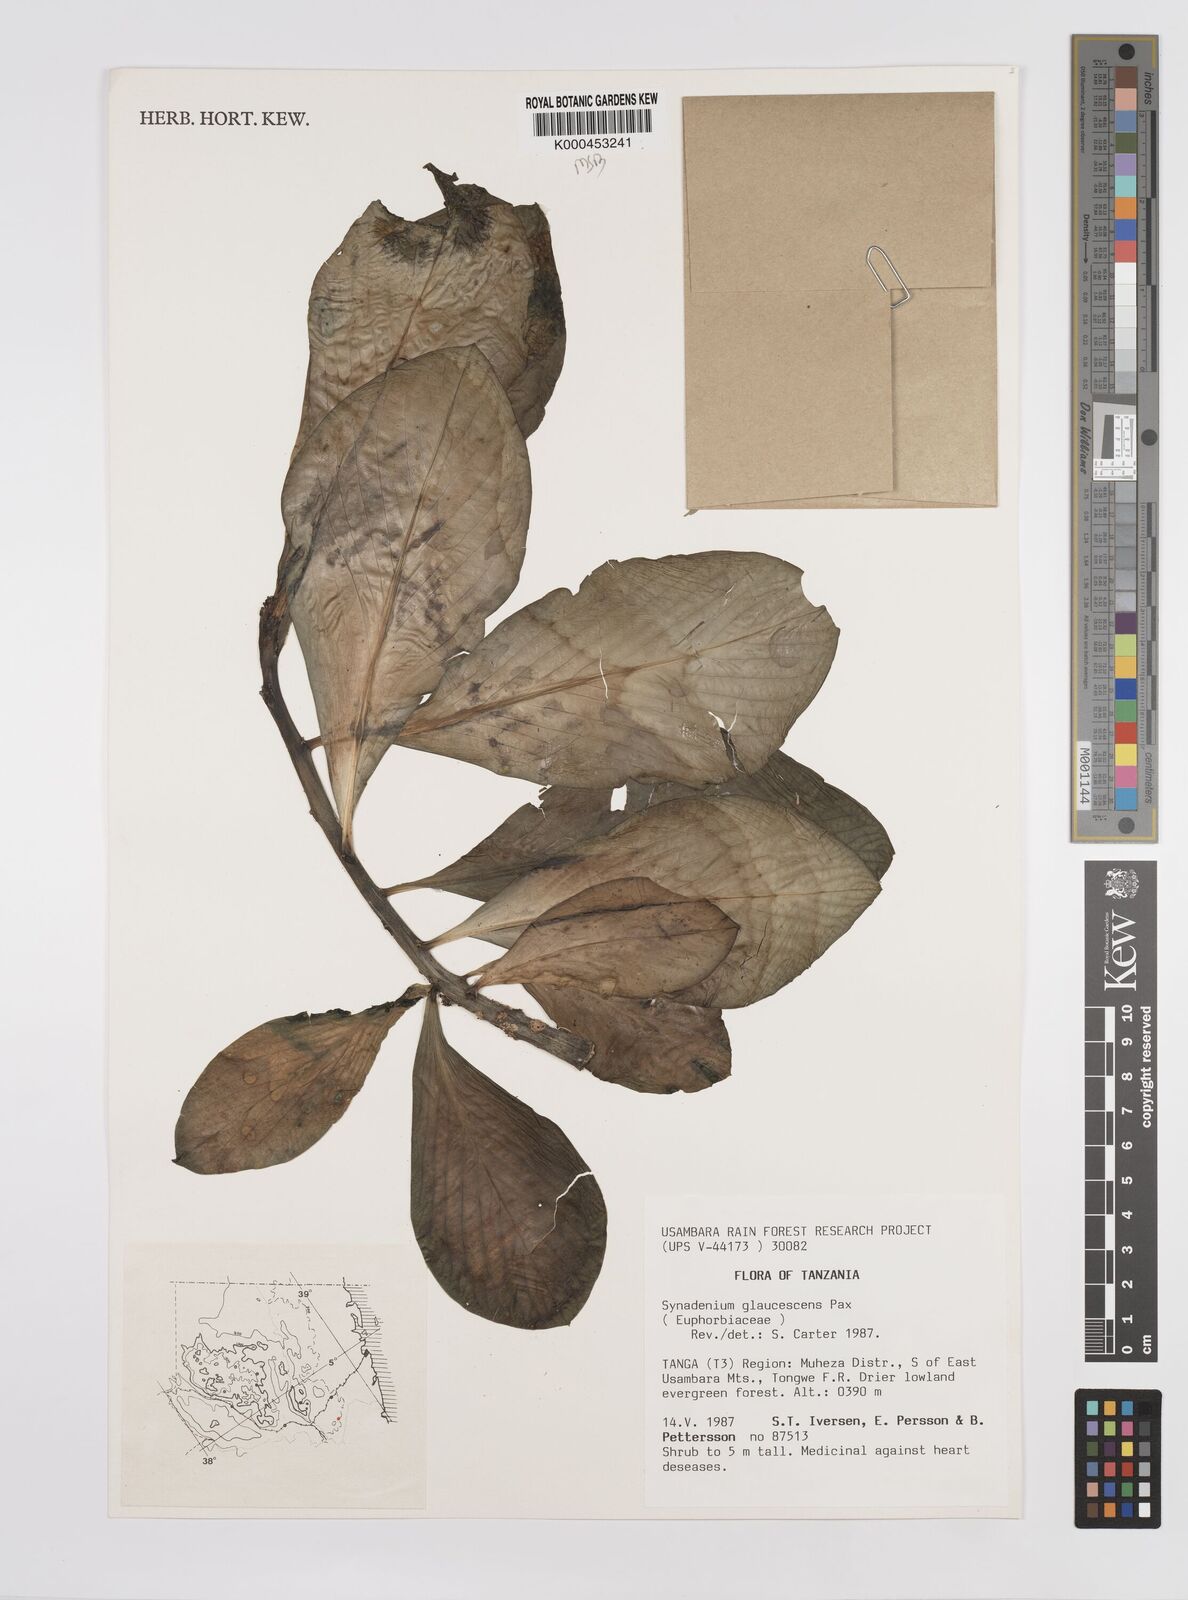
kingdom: Plantae
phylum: Tracheophyta
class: Magnoliopsida
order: Malpighiales
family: Euphorbiaceae
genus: Euphorbia
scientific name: Euphorbia neoglaucescens
